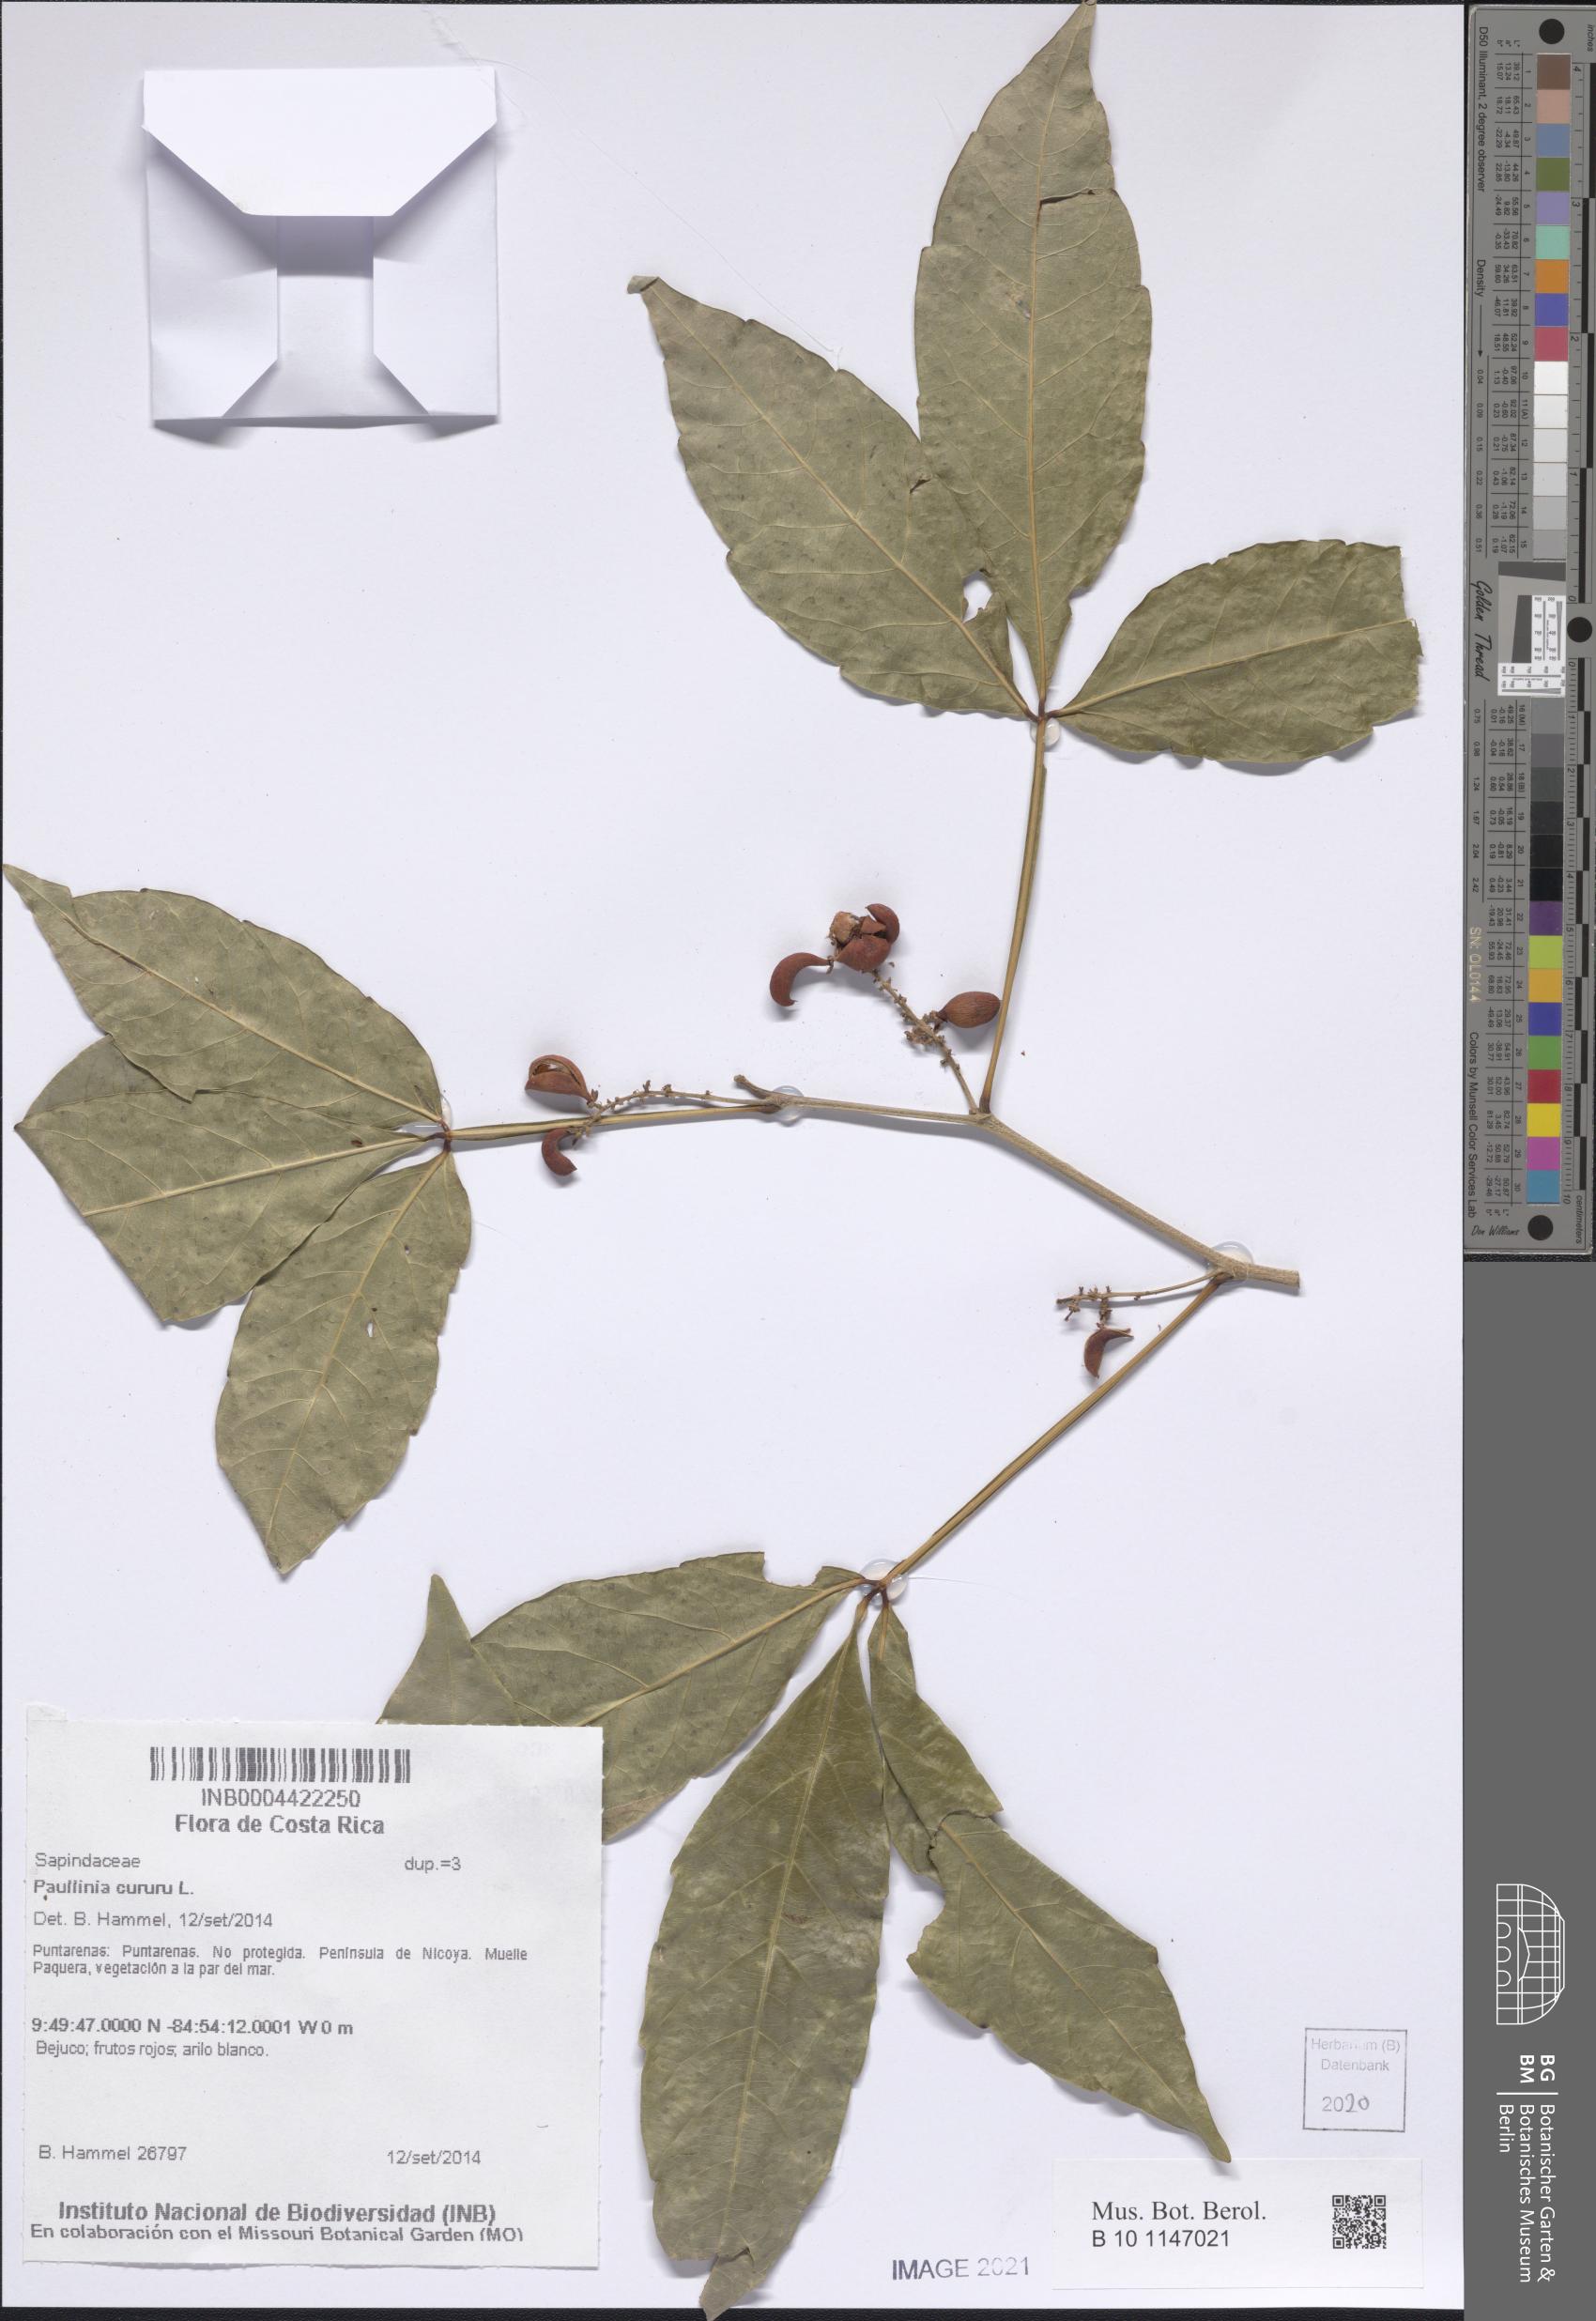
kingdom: Plantae
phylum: Tracheophyta
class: Magnoliopsida
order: Sapindales
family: Sapindaceae
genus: Paullinia
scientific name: Paullinia cururu
